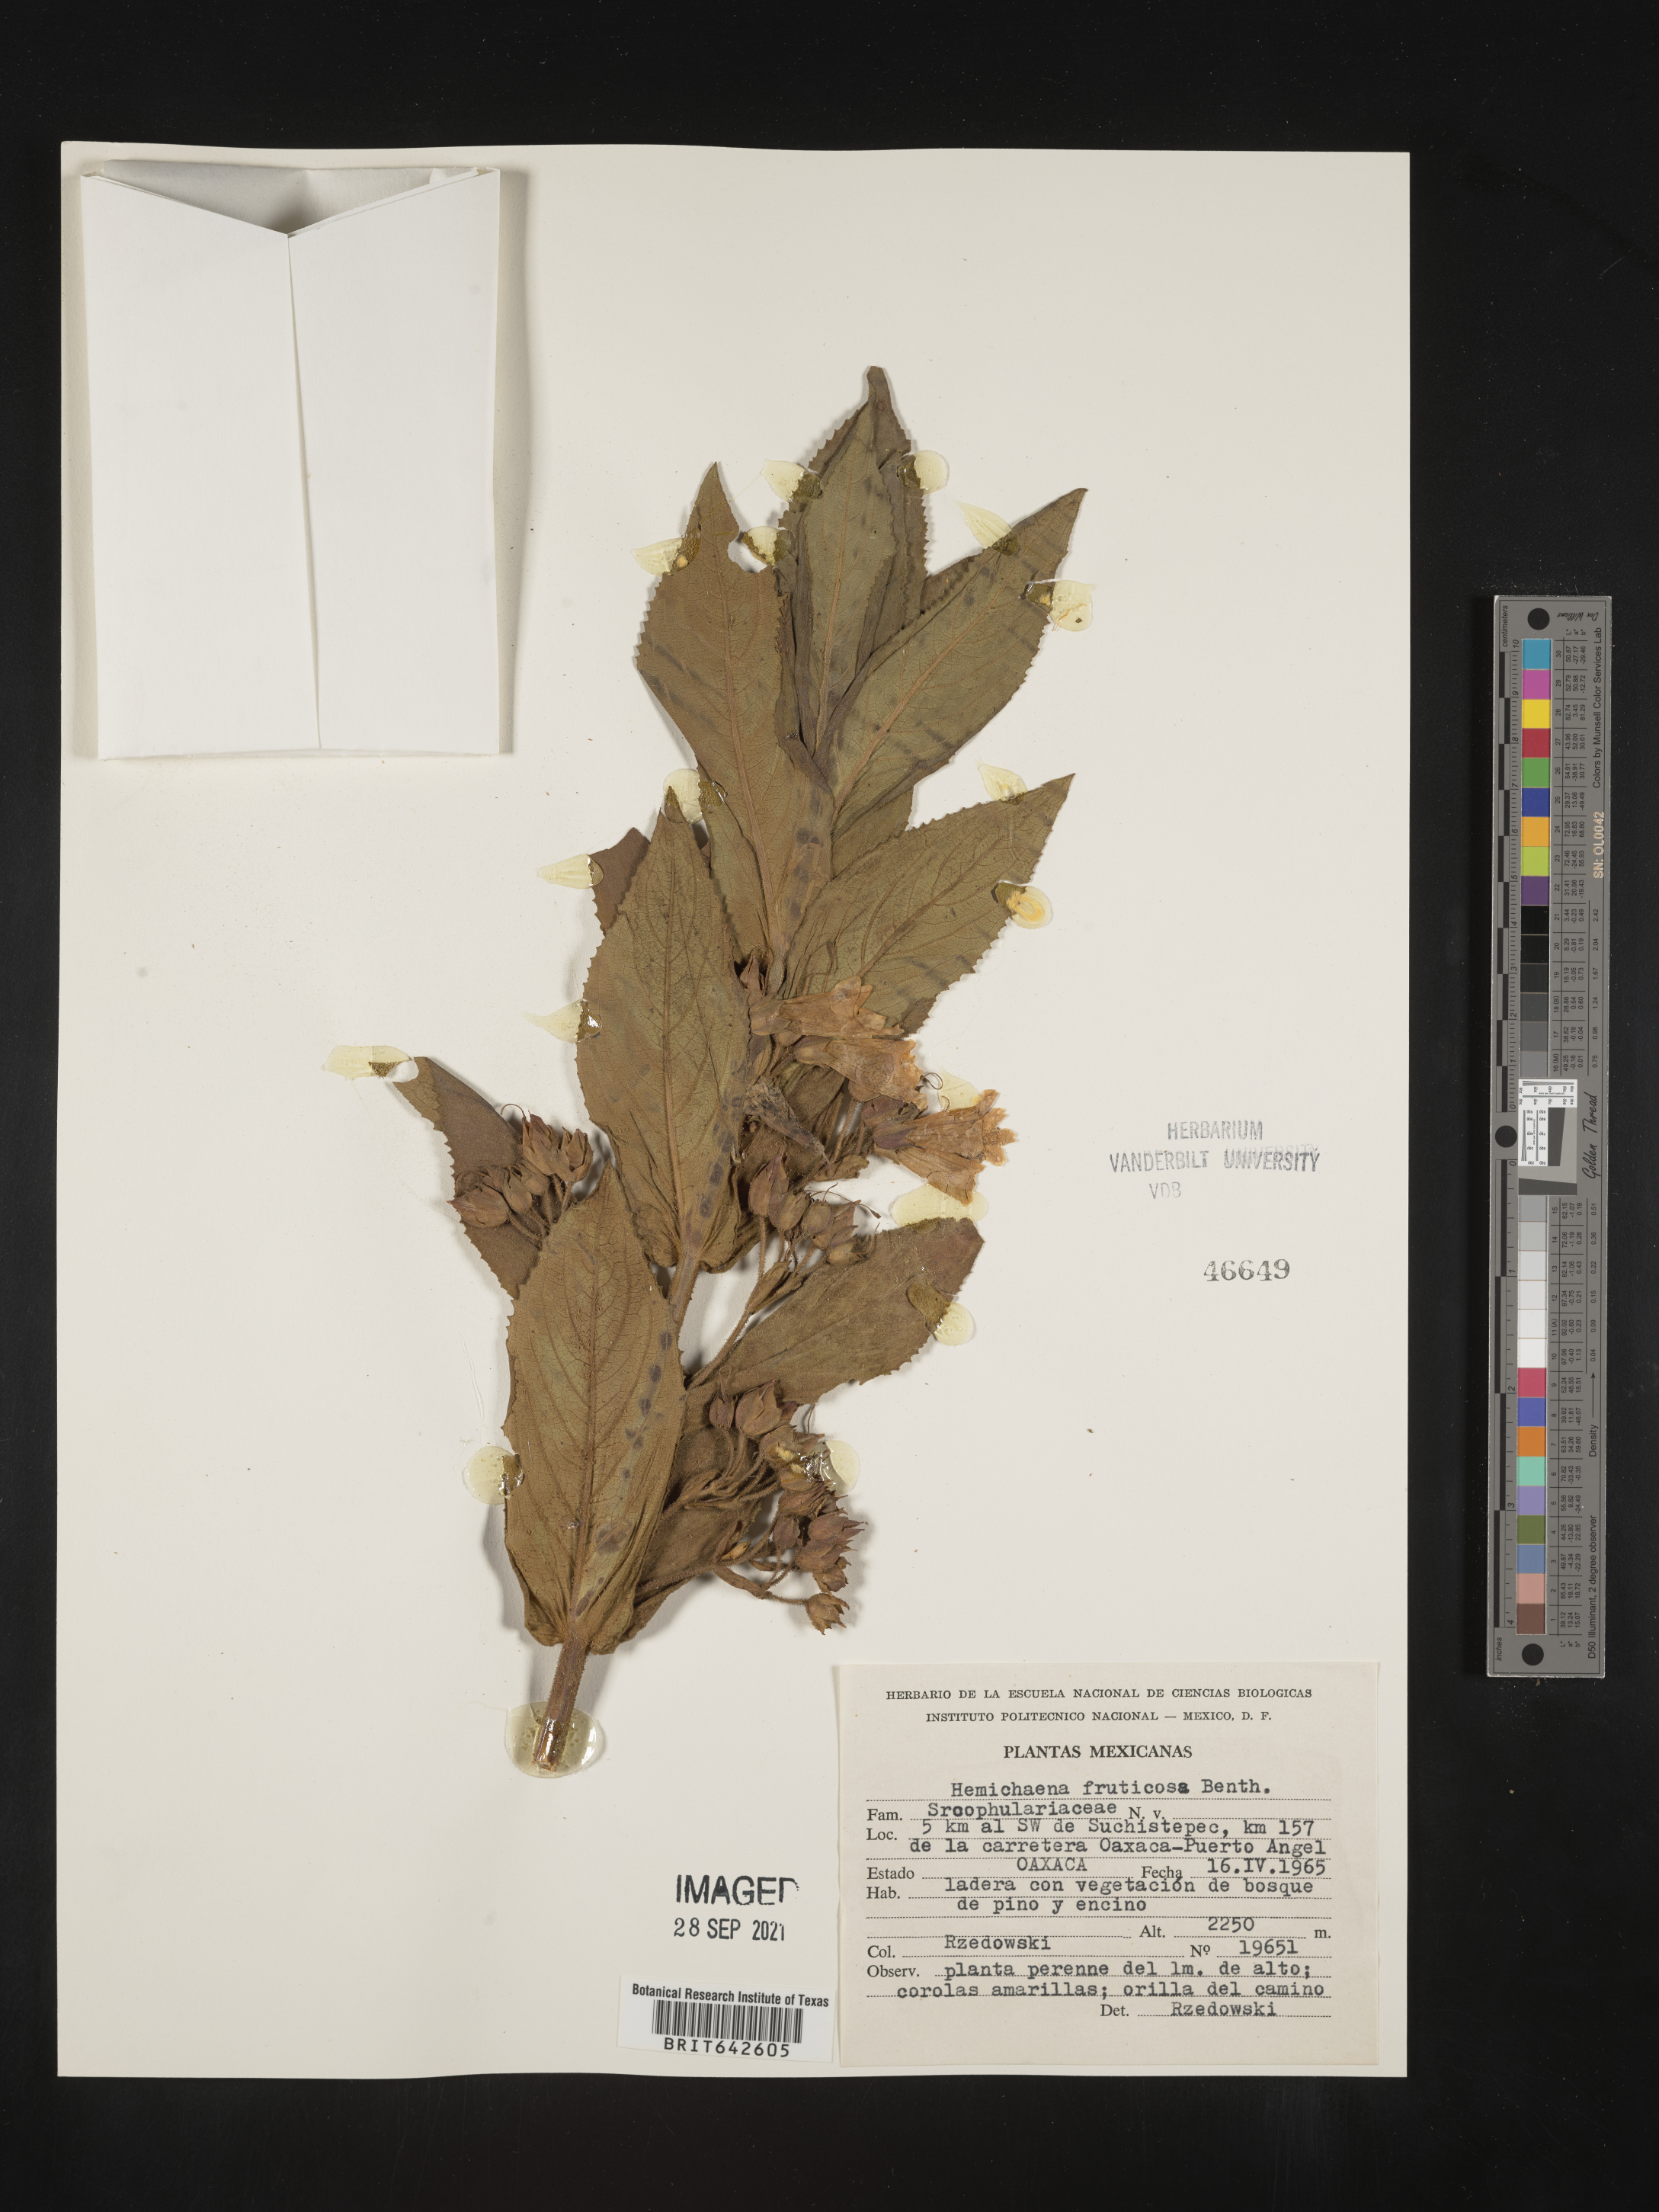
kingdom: Plantae
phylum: Tracheophyta
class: Magnoliopsida
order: Lamiales
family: Phrymaceae
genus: Hemichaena
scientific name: Hemichaena
